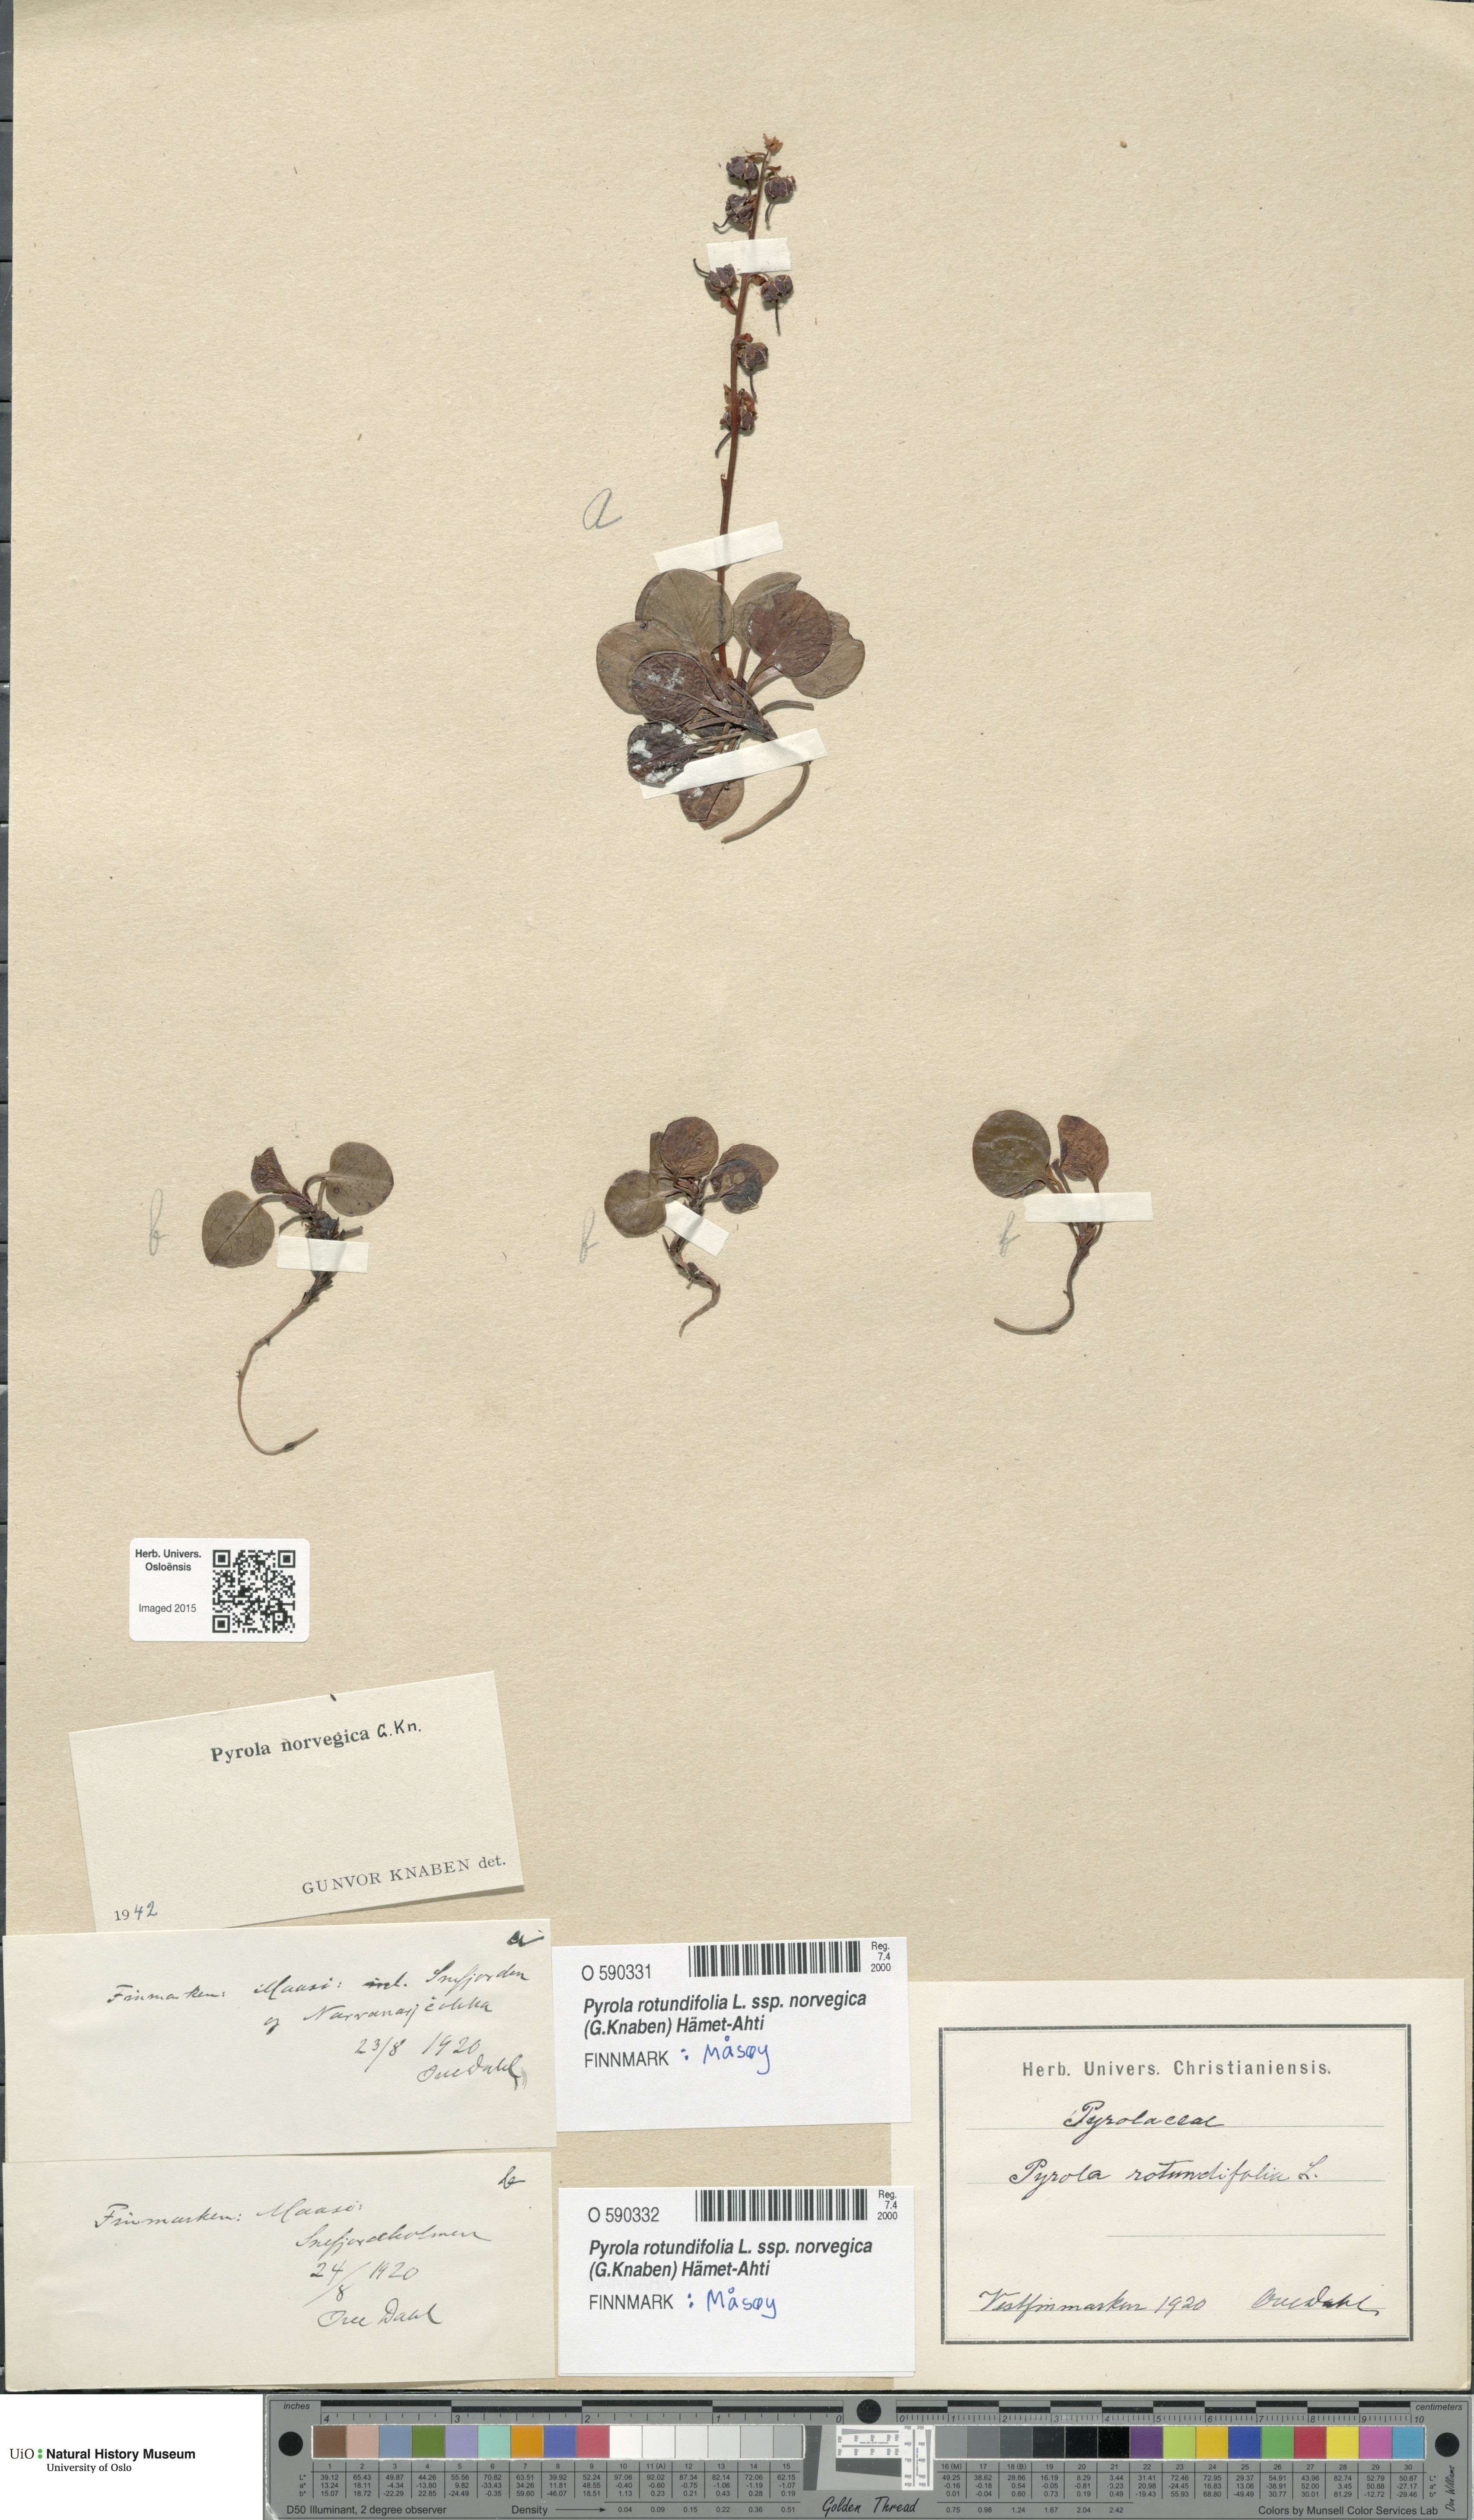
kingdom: Plantae
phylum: Tracheophyta
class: Magnoliopsida
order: Ericales
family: Ericaceae
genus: Pyrola
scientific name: Pyrola rotundifolia
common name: Round-leaved wintergreen
